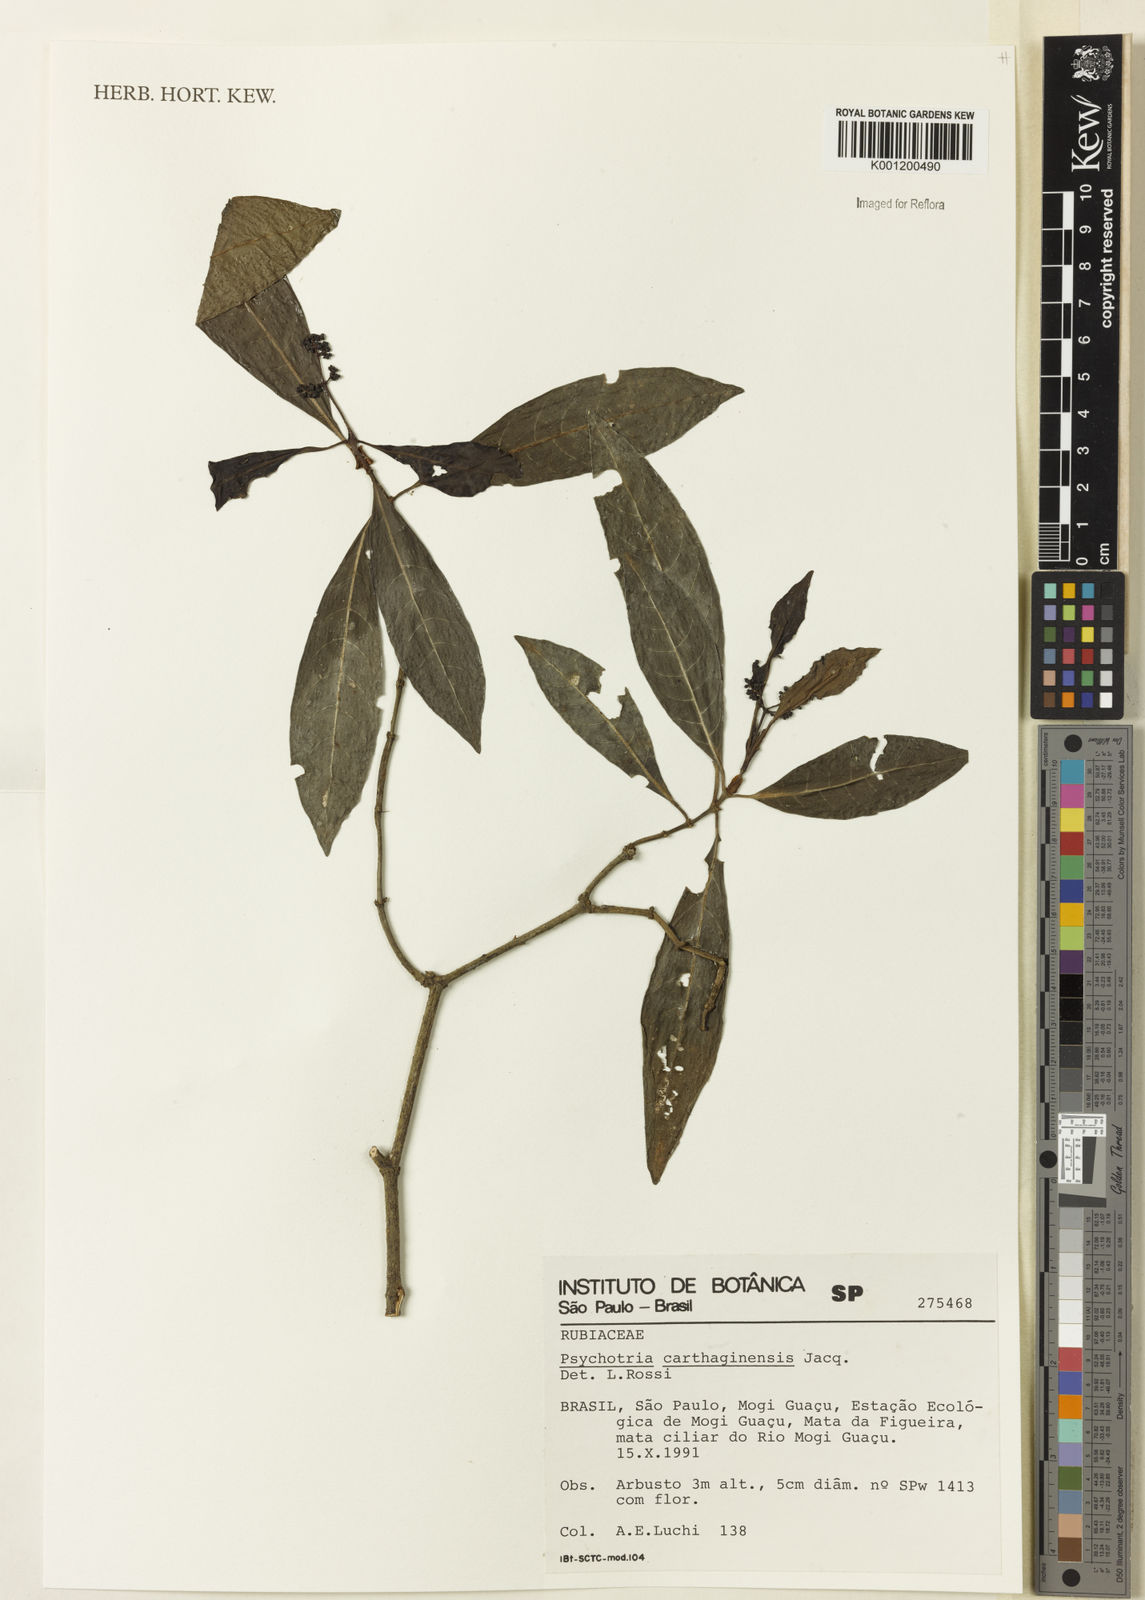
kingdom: Plantae
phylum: Tracheophyta
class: Magnoliopsida
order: Gentianales
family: Rubiaceae
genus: Psychotria
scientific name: Psychotria carthagenensis
